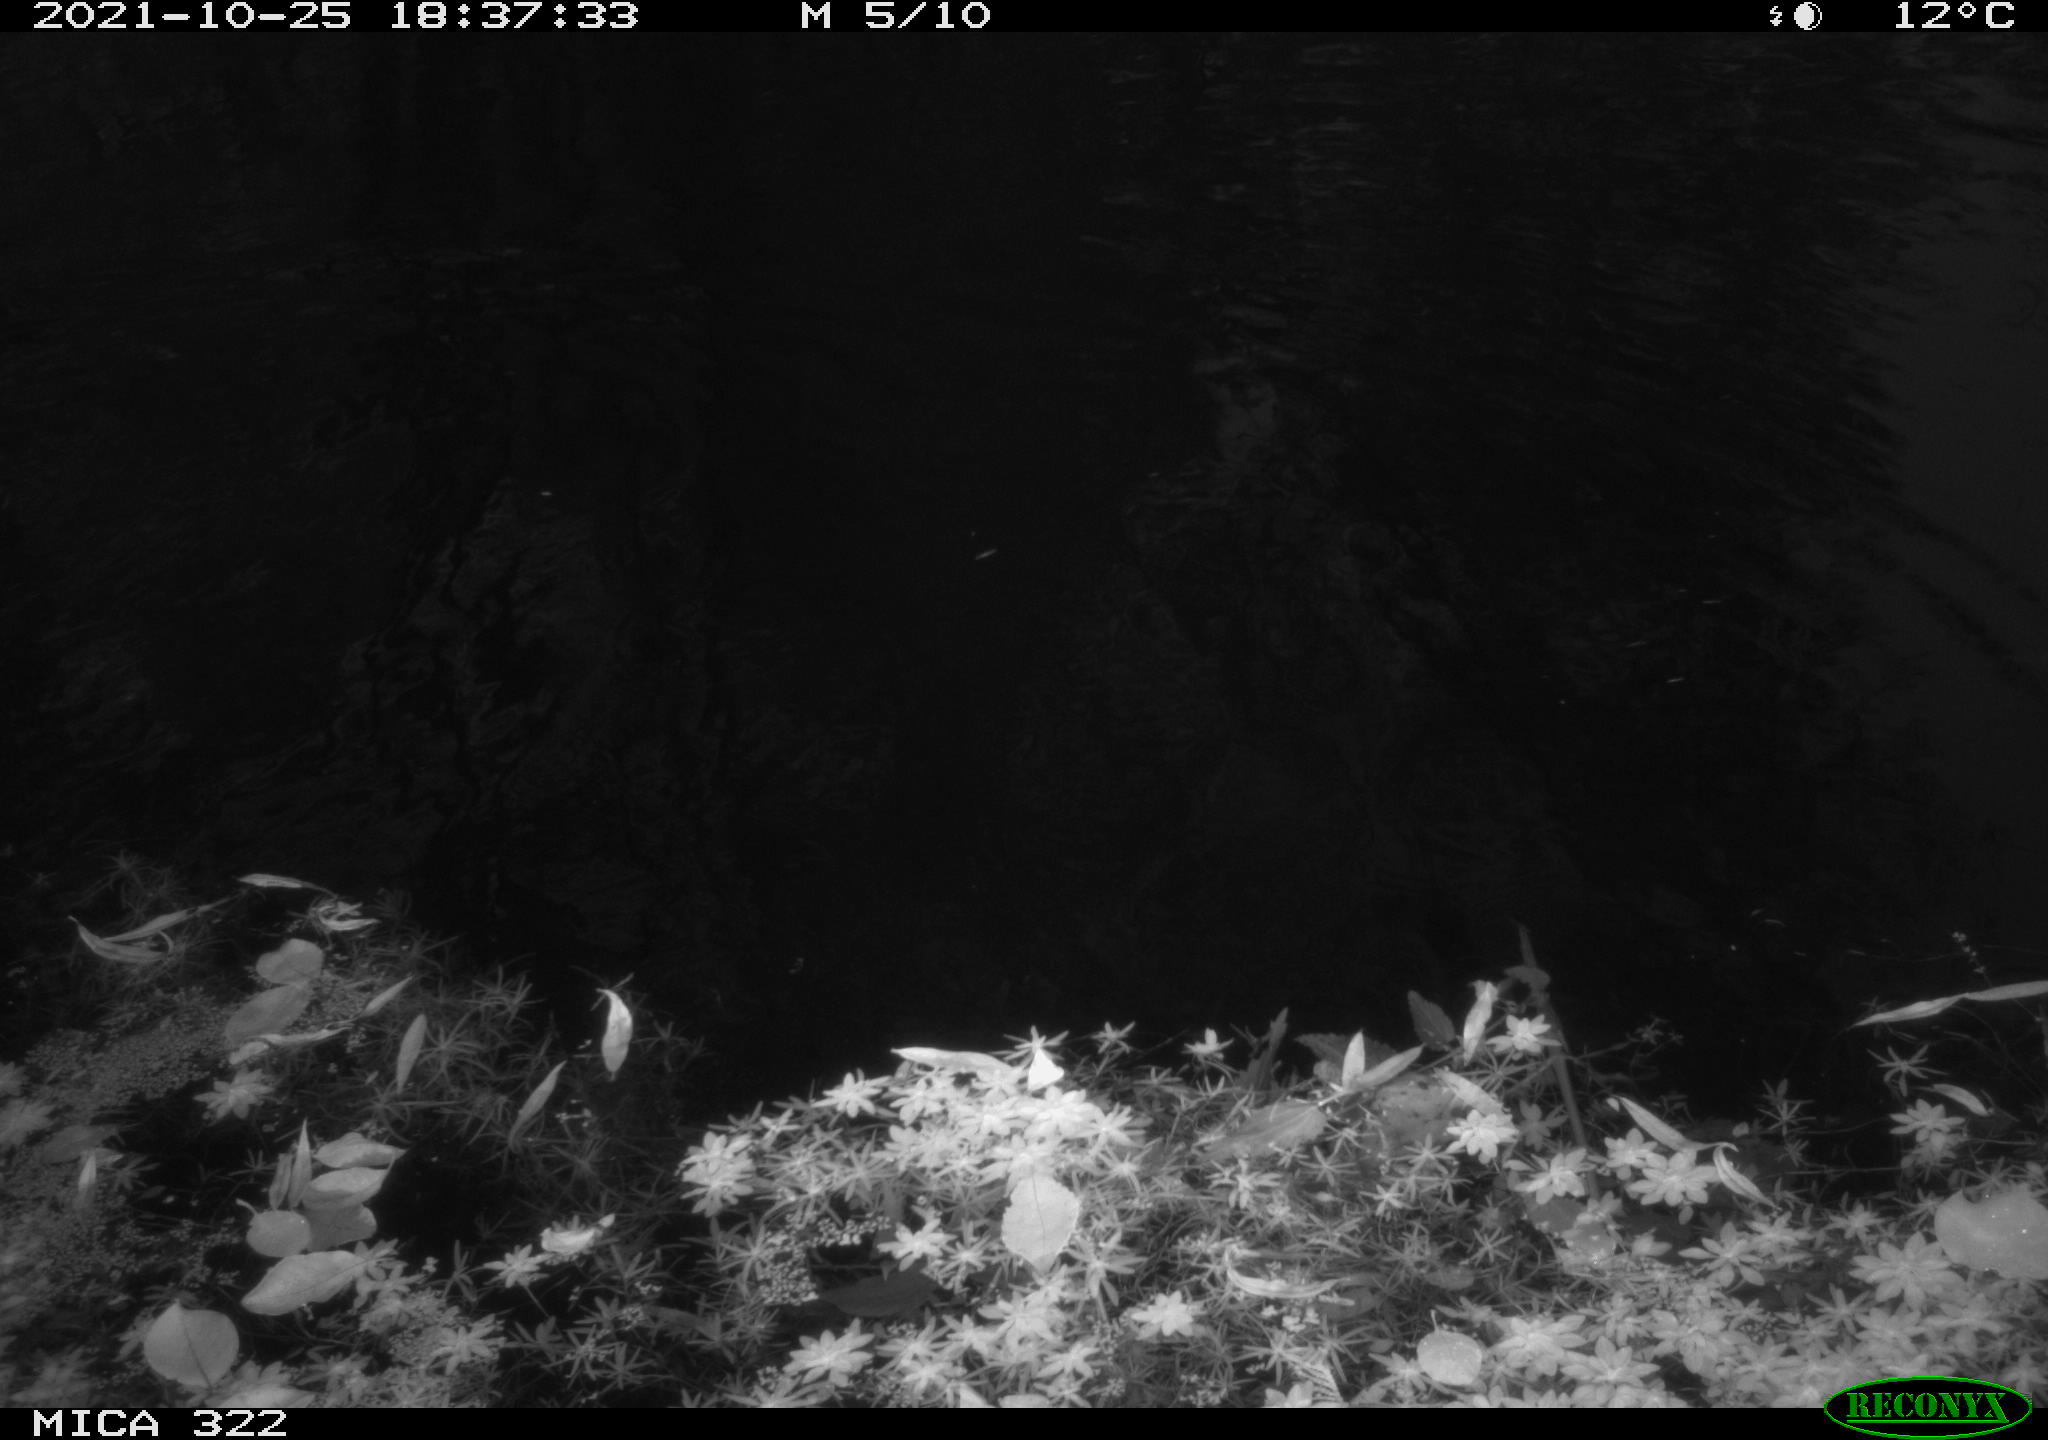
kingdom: Animalia
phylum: Chordata
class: Aves
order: Gruiformes
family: Rallidae
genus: Gallinula
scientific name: Gallinula chloropus
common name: Common moorhen
